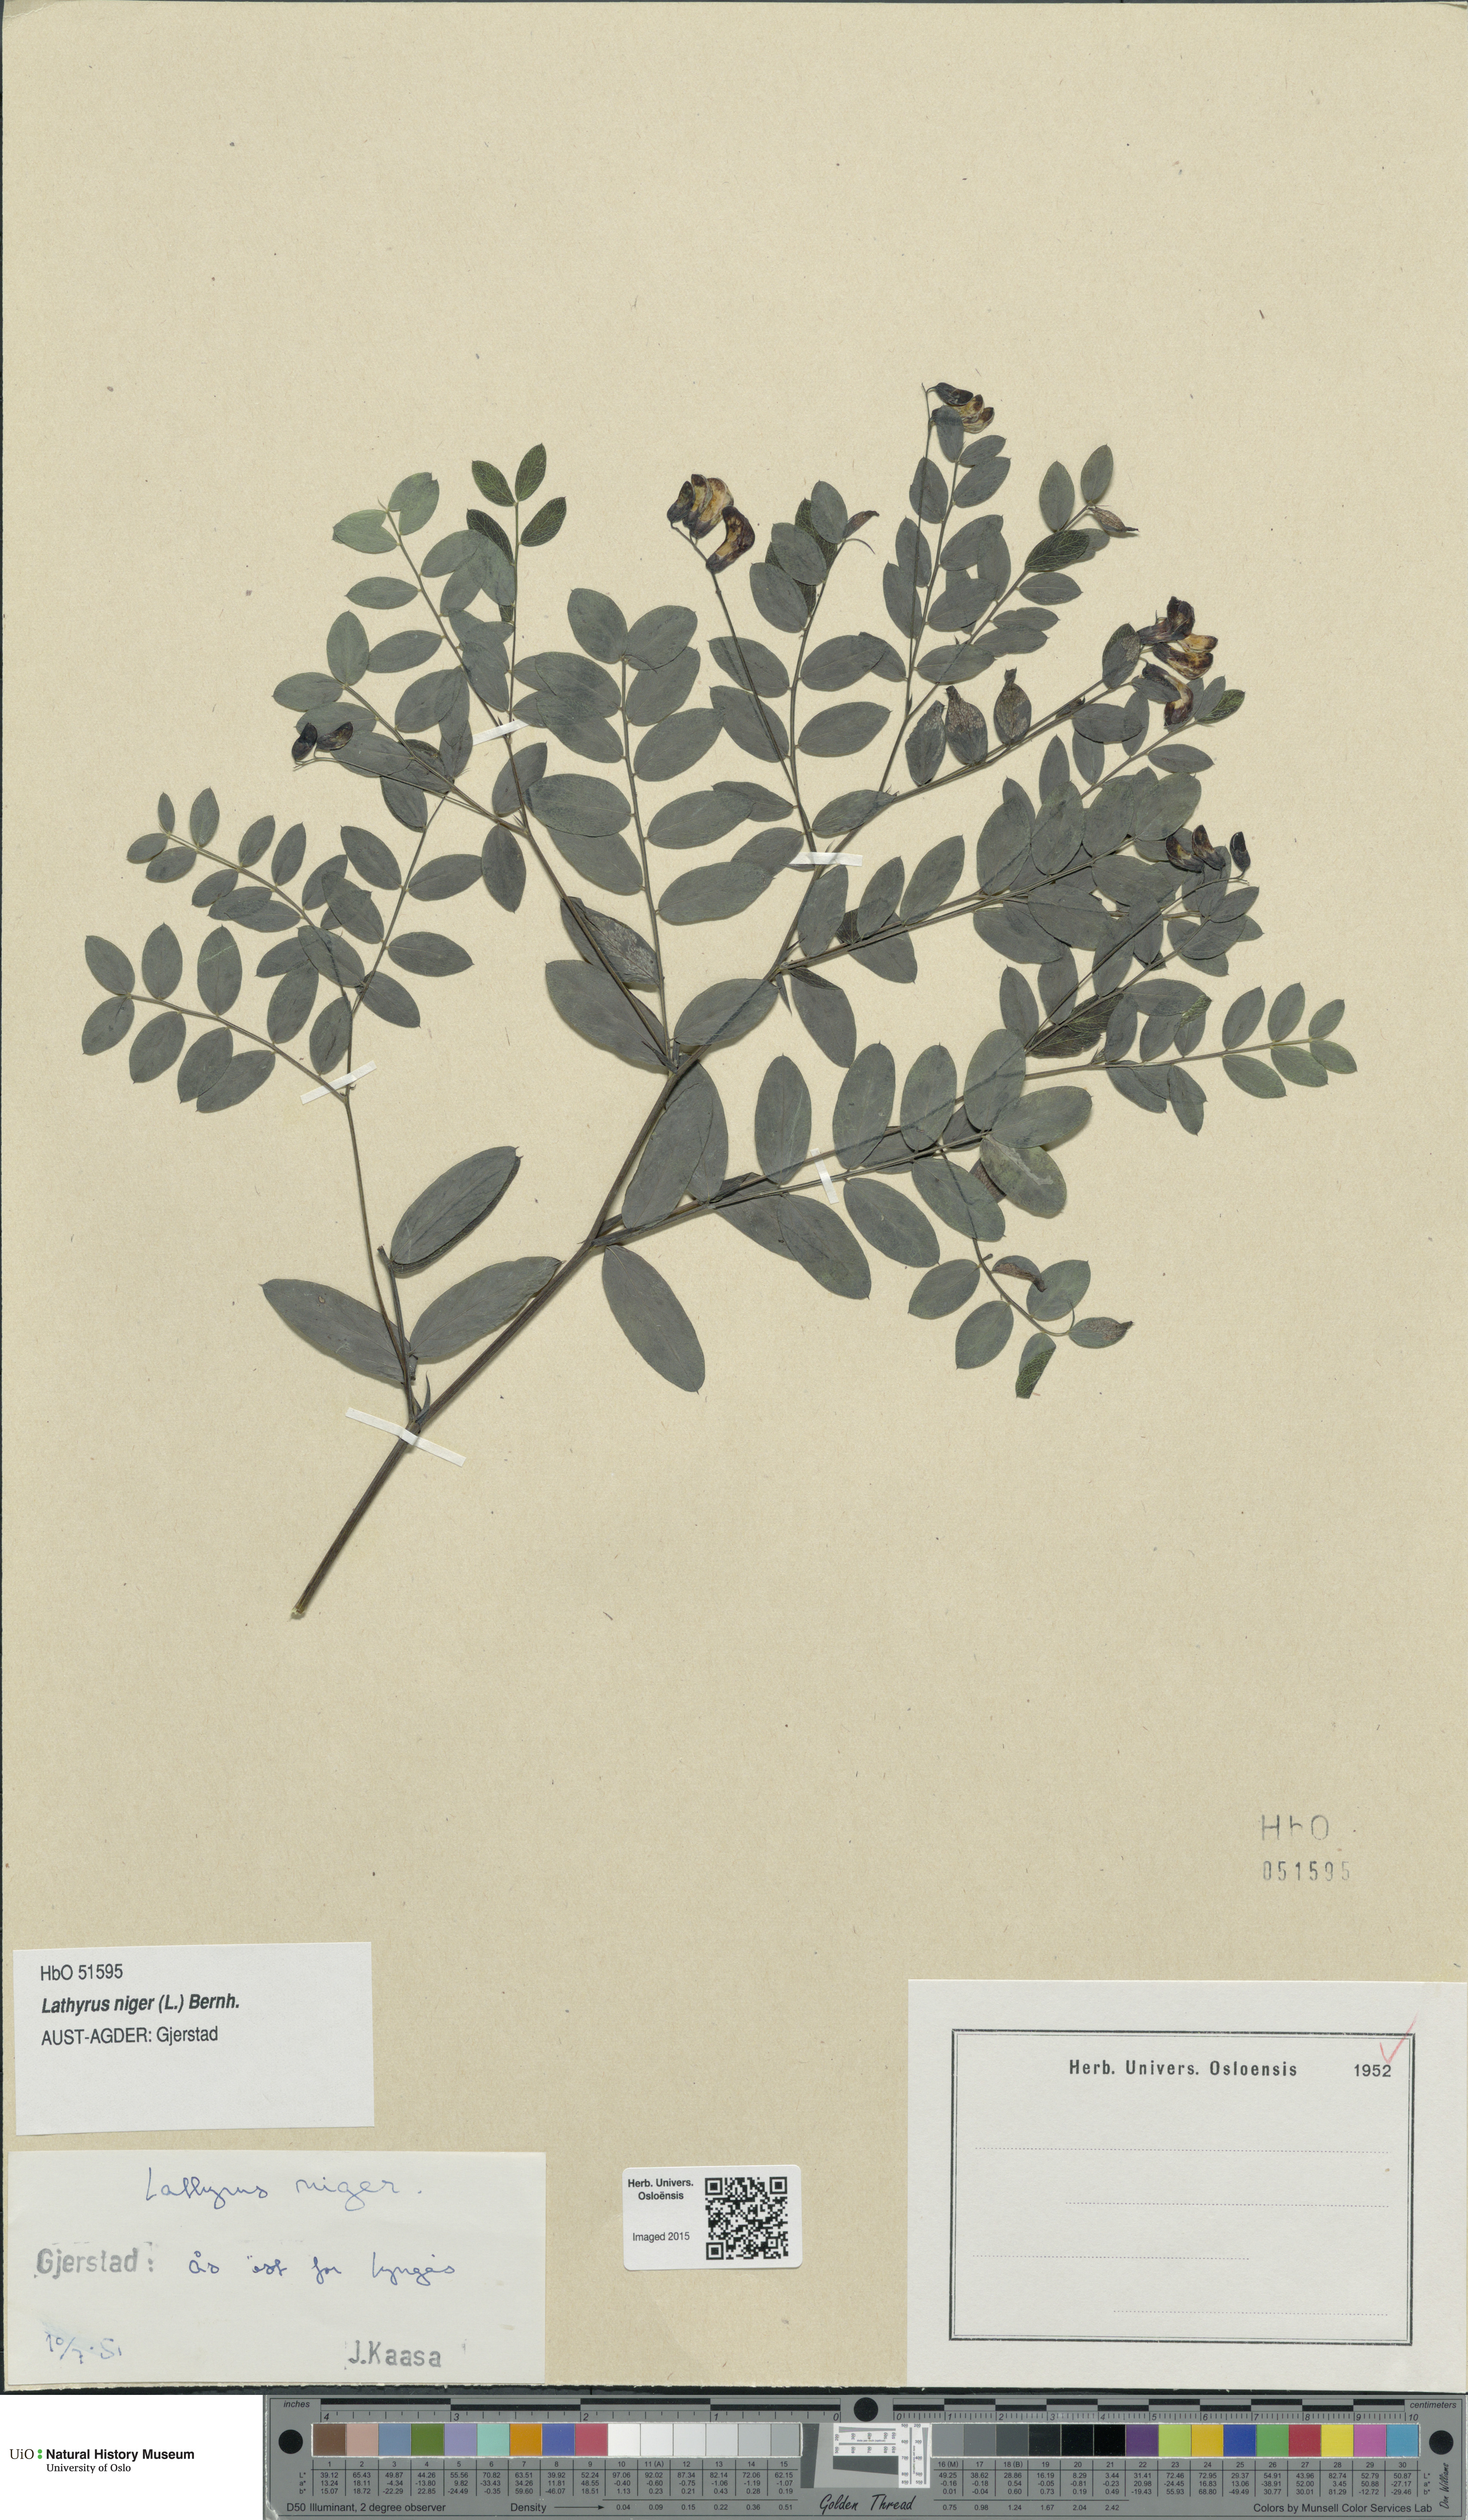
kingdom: Plantae
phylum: Tracheophyta
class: Magnoliopsida
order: Fabales
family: Fabaceae
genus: Lathyrus
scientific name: Lathyrus niger
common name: Black pea
